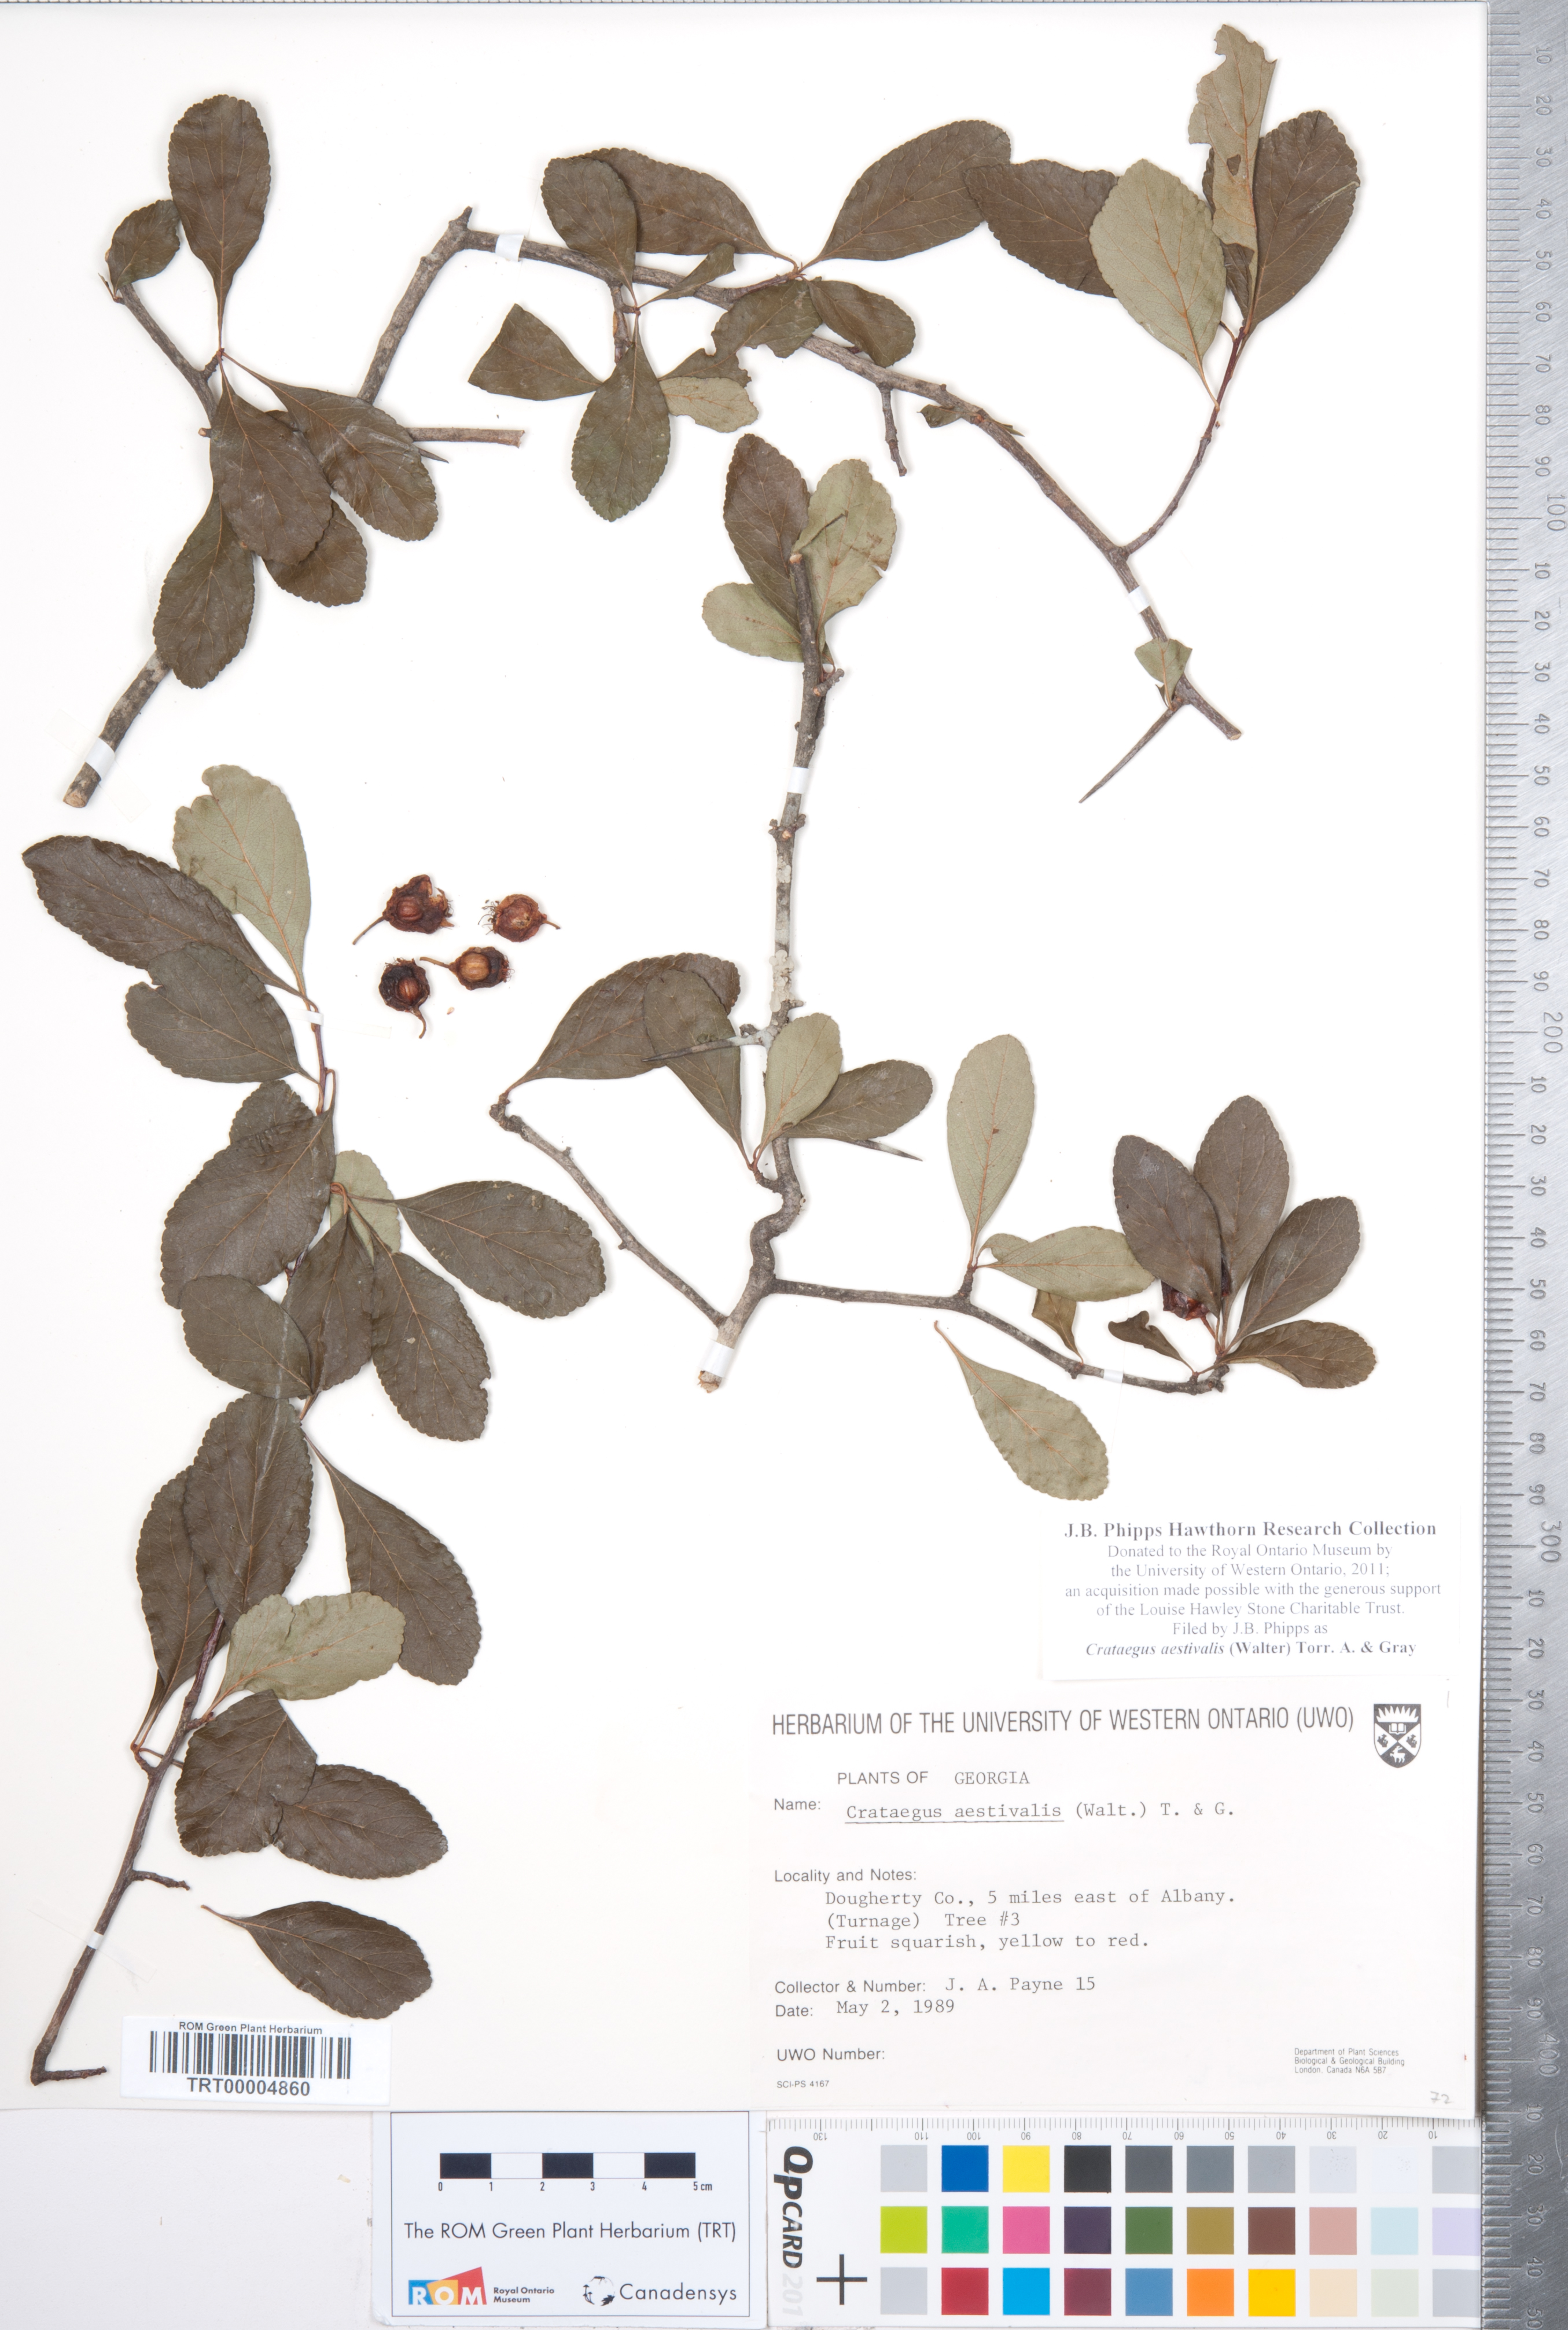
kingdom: Plantae
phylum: Tracheophyta
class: Magnoliopsida
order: Rosales
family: Rosaceae
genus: Crataegus
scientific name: Crataegus aestivalis
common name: Mayhaw
